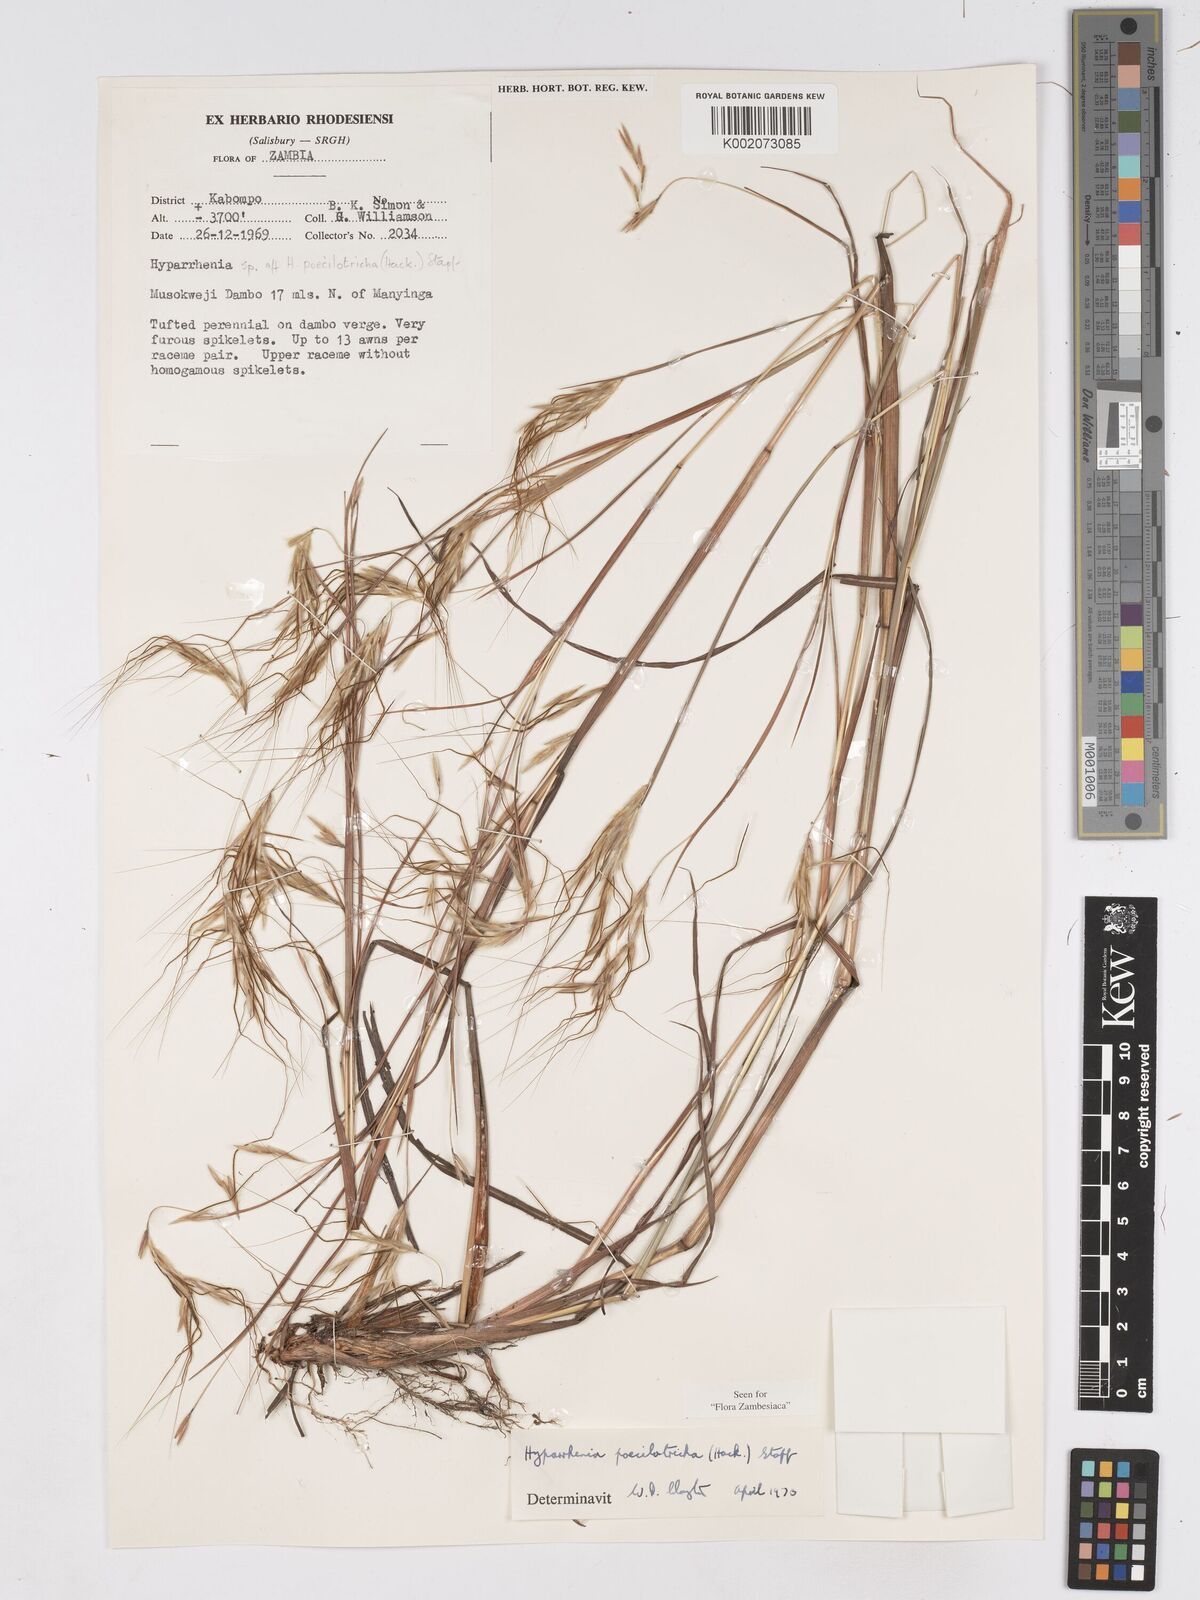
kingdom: Plantae
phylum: Tracheophyta
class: Liliopsida
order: Poales
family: Poaceae
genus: Hyparrhenia
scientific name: Hyparrhenia poecilotricha
